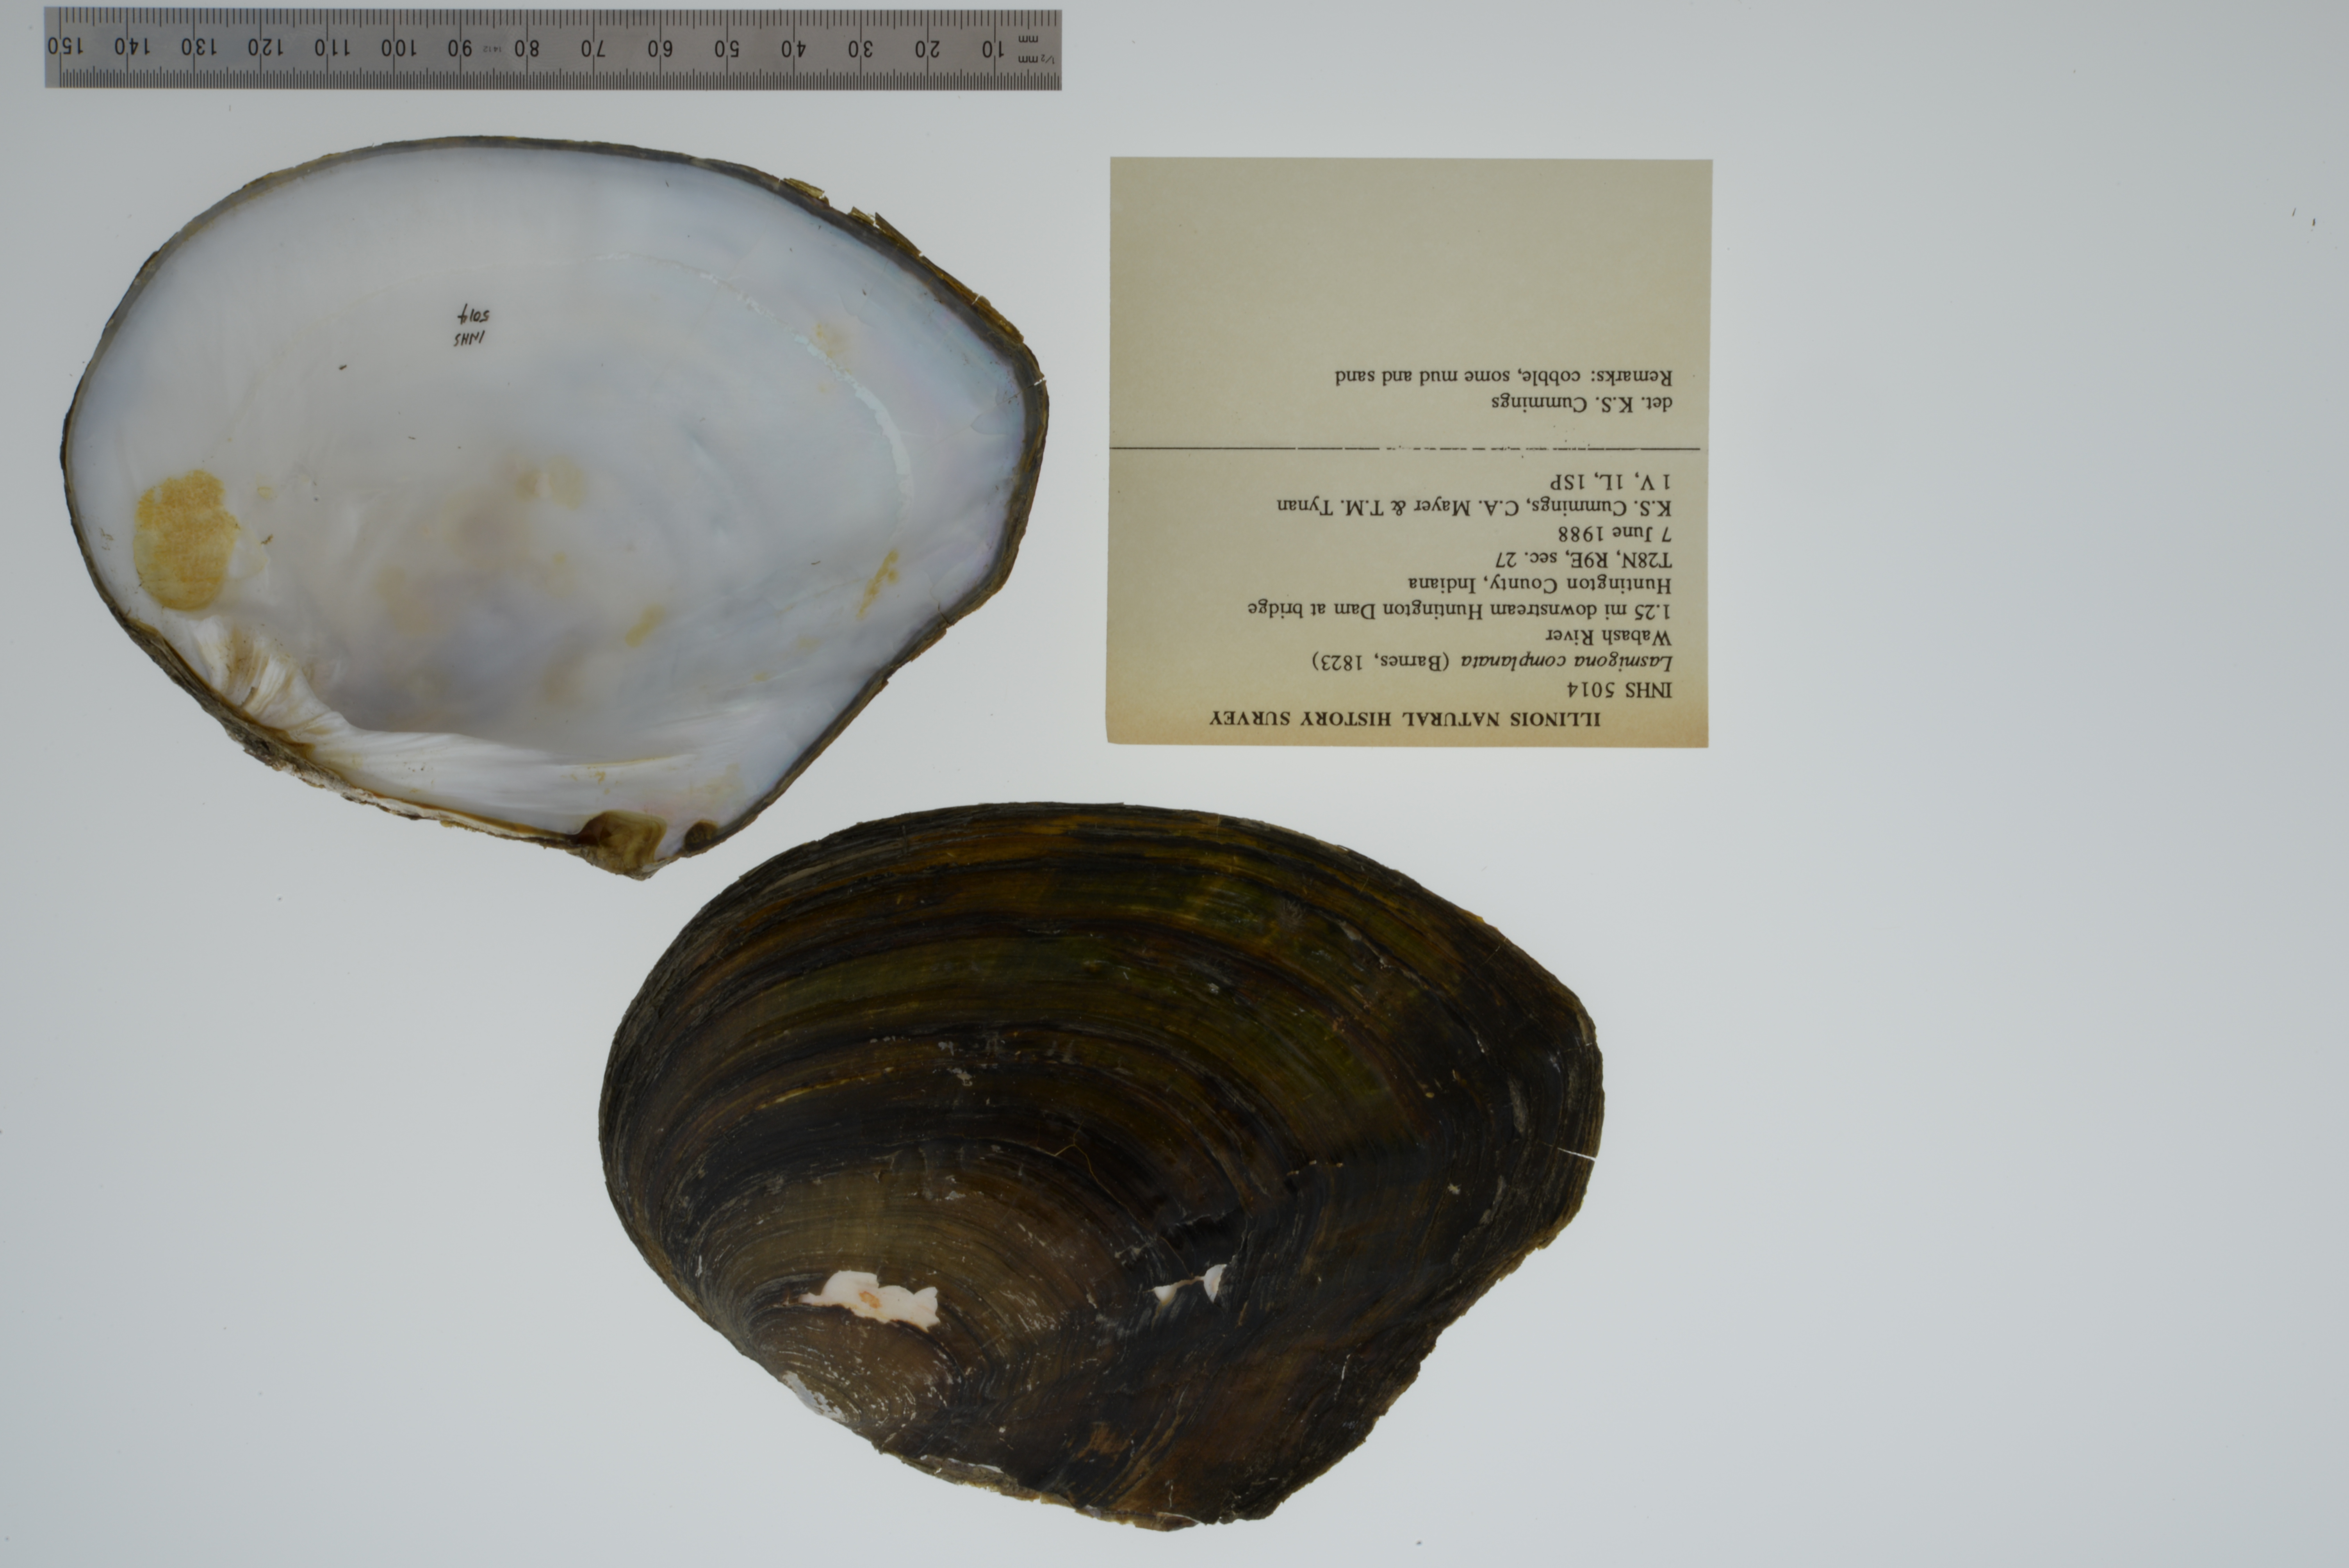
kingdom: Animalia
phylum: Mollusca
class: Bivalvia
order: Unionida
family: Unionidae
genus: Lasmigona
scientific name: Lasmigona complanata
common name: White heelsplitter
